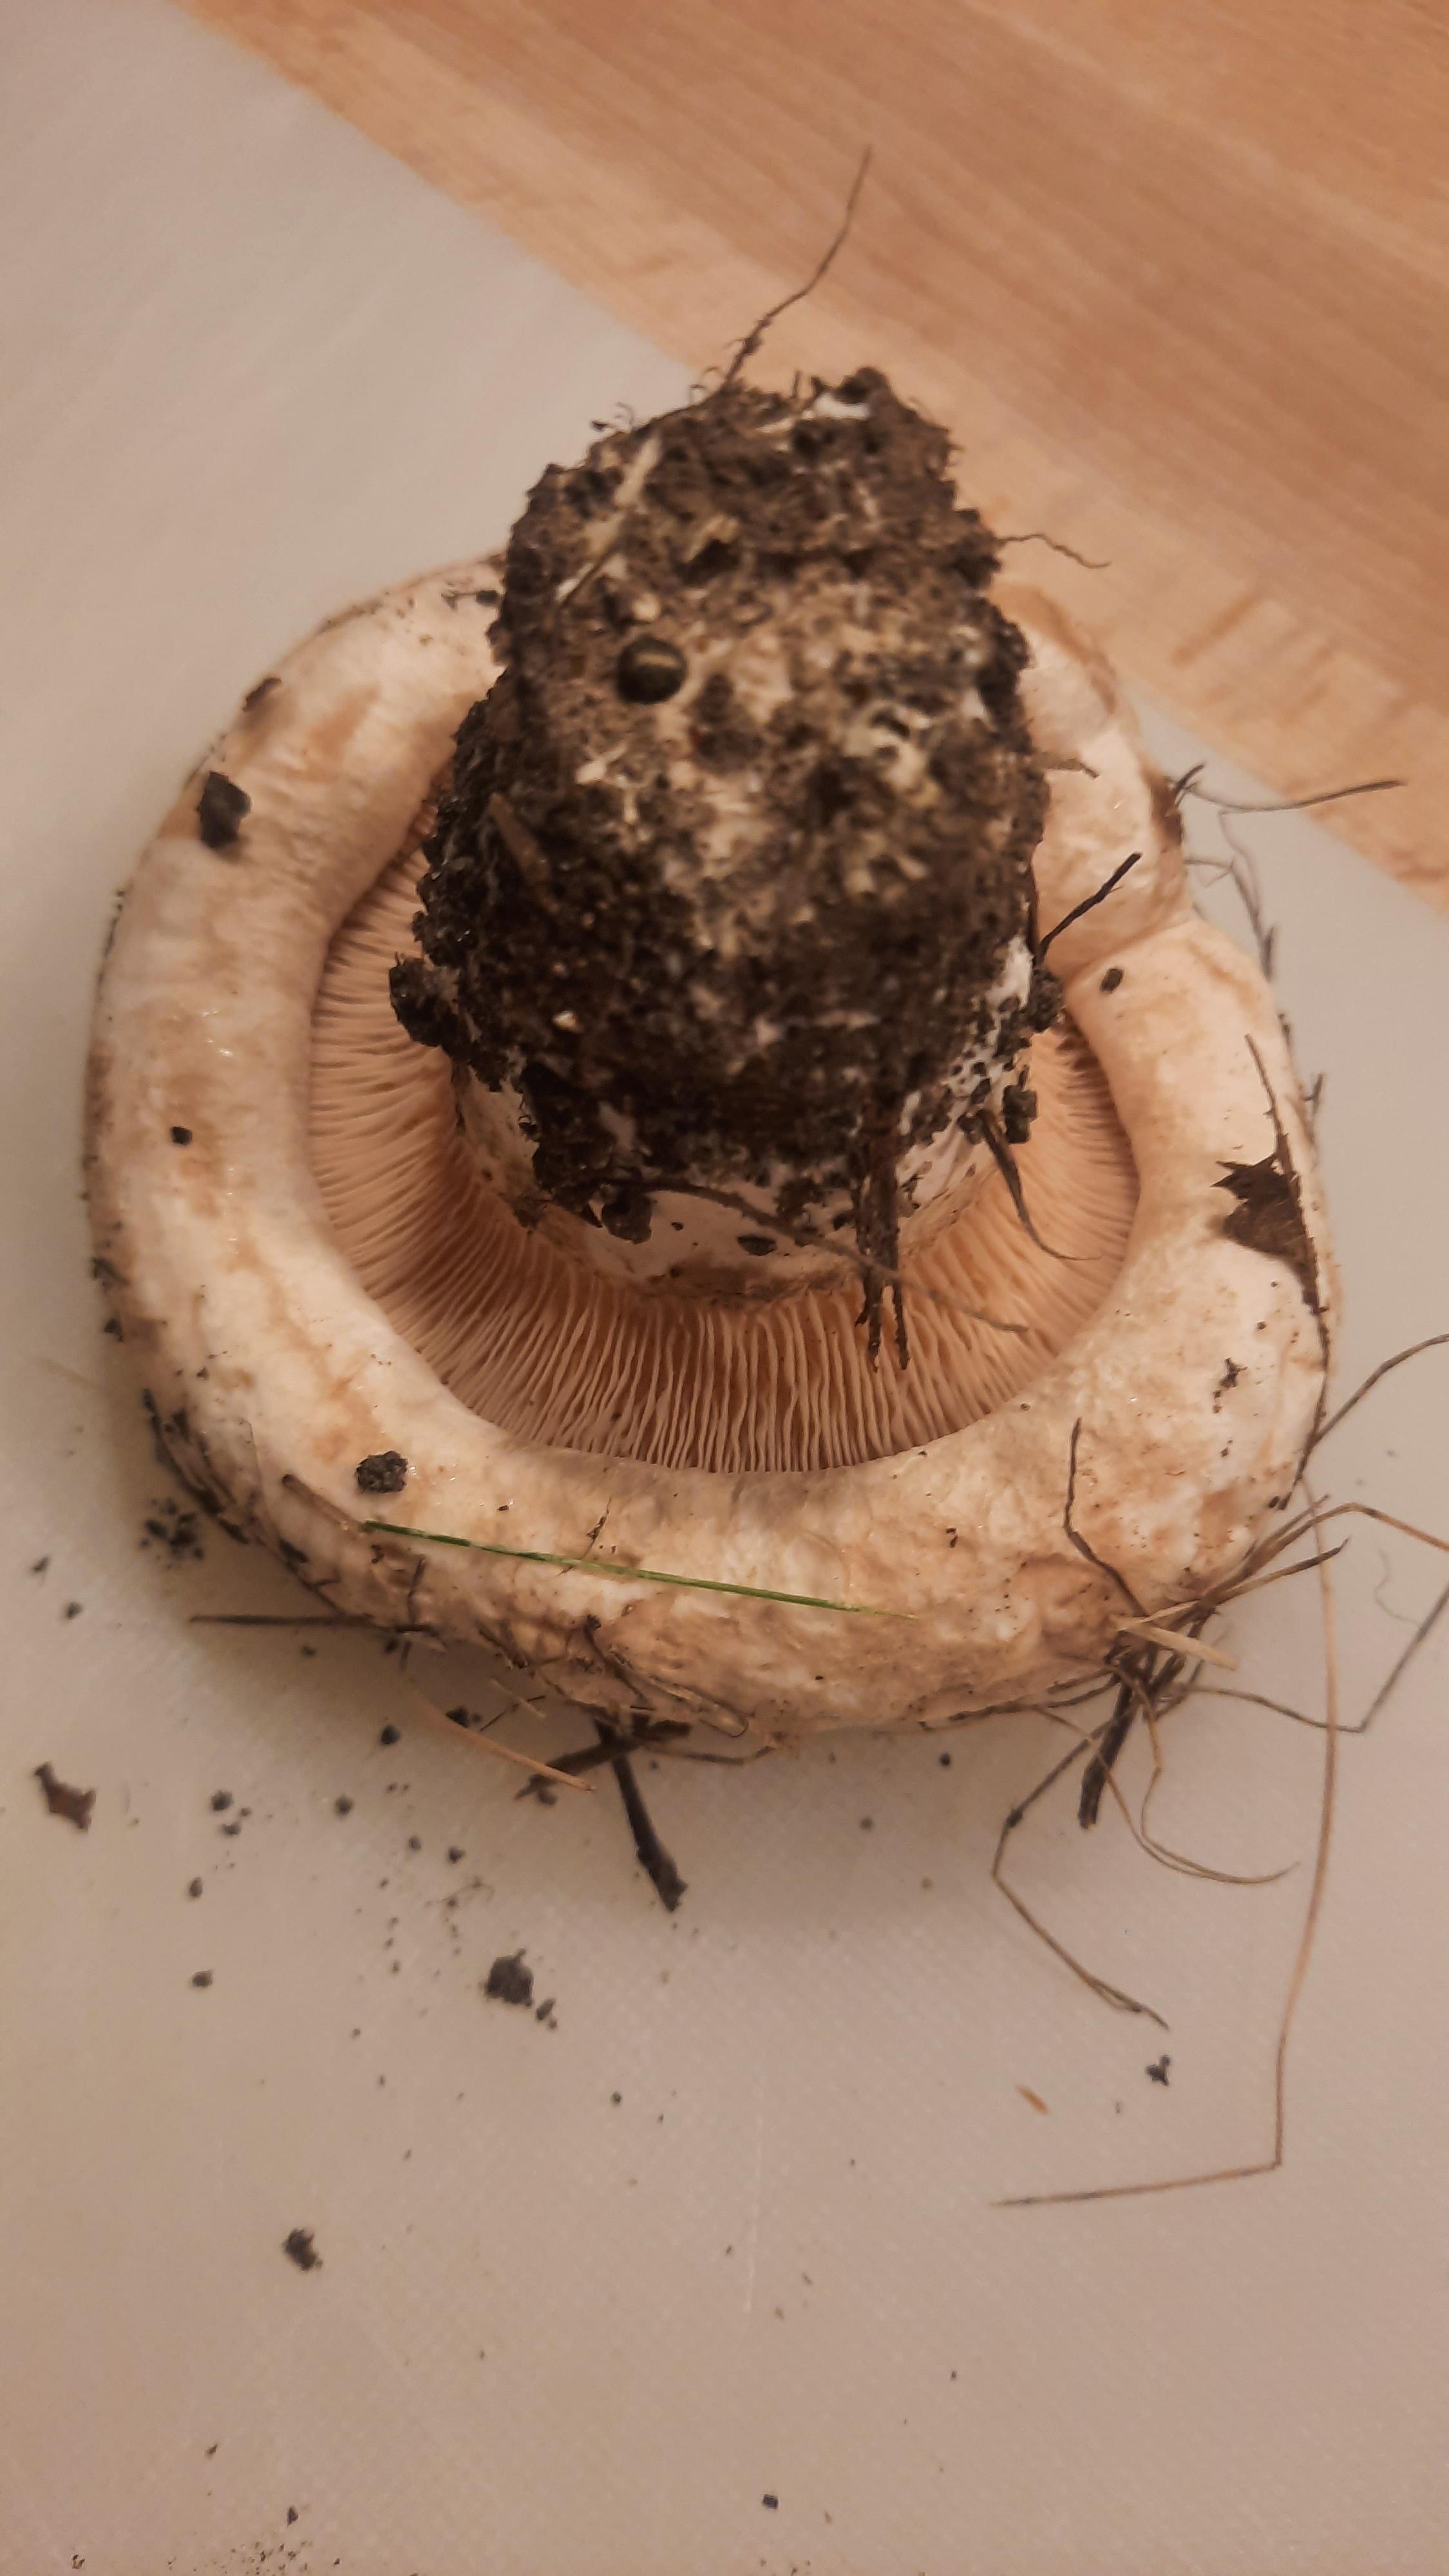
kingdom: Fungi
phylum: Basidiomycota
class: Agaricomycetes
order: Russulales
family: Russulaceae
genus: Lactarius
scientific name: Lactarius
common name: mælkehat
